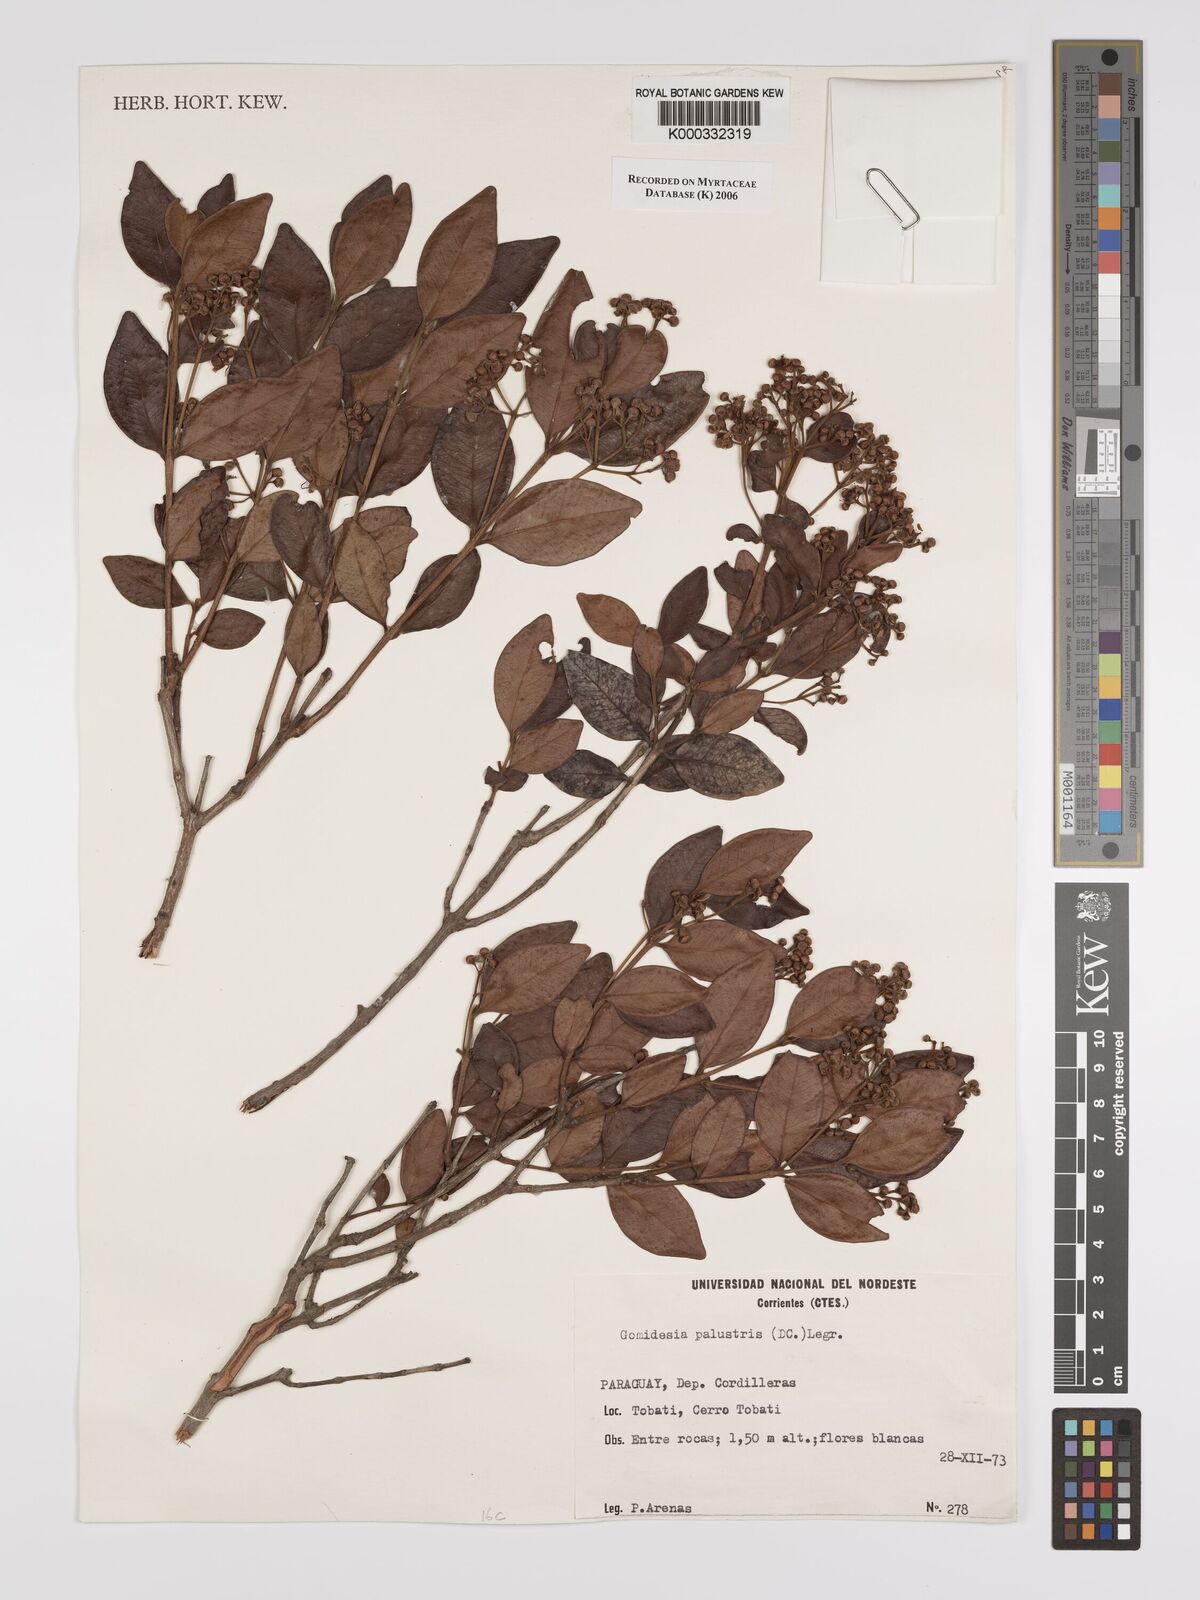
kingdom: Plantae
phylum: Tracheophyta
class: Magnoliopsida
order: Myrtales
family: Myrtaceae
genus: Myrcia
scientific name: Myrcia palustris
